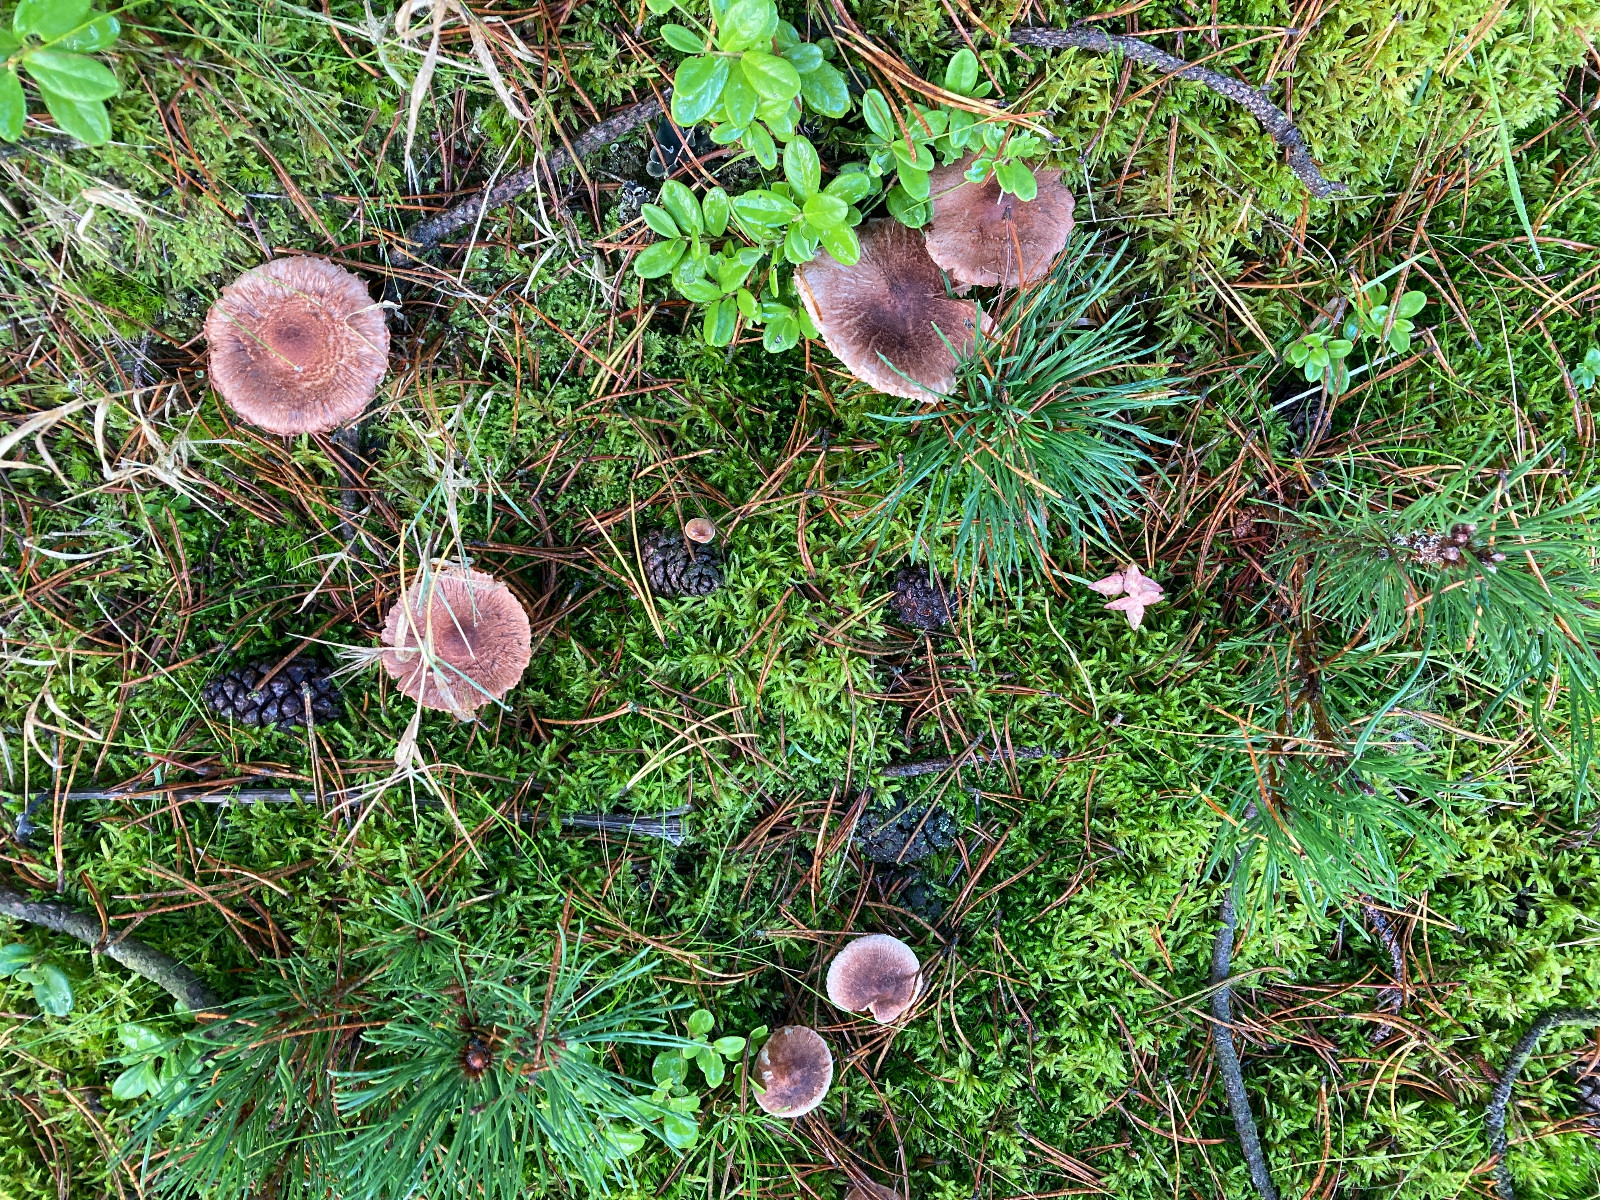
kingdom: Fungi
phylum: Basidiomycota
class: Agaricomycetes
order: Agaricales
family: Tricholomataceae
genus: Tricholoma
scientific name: Tricholoma vaccinum
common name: ko-ridderhat
